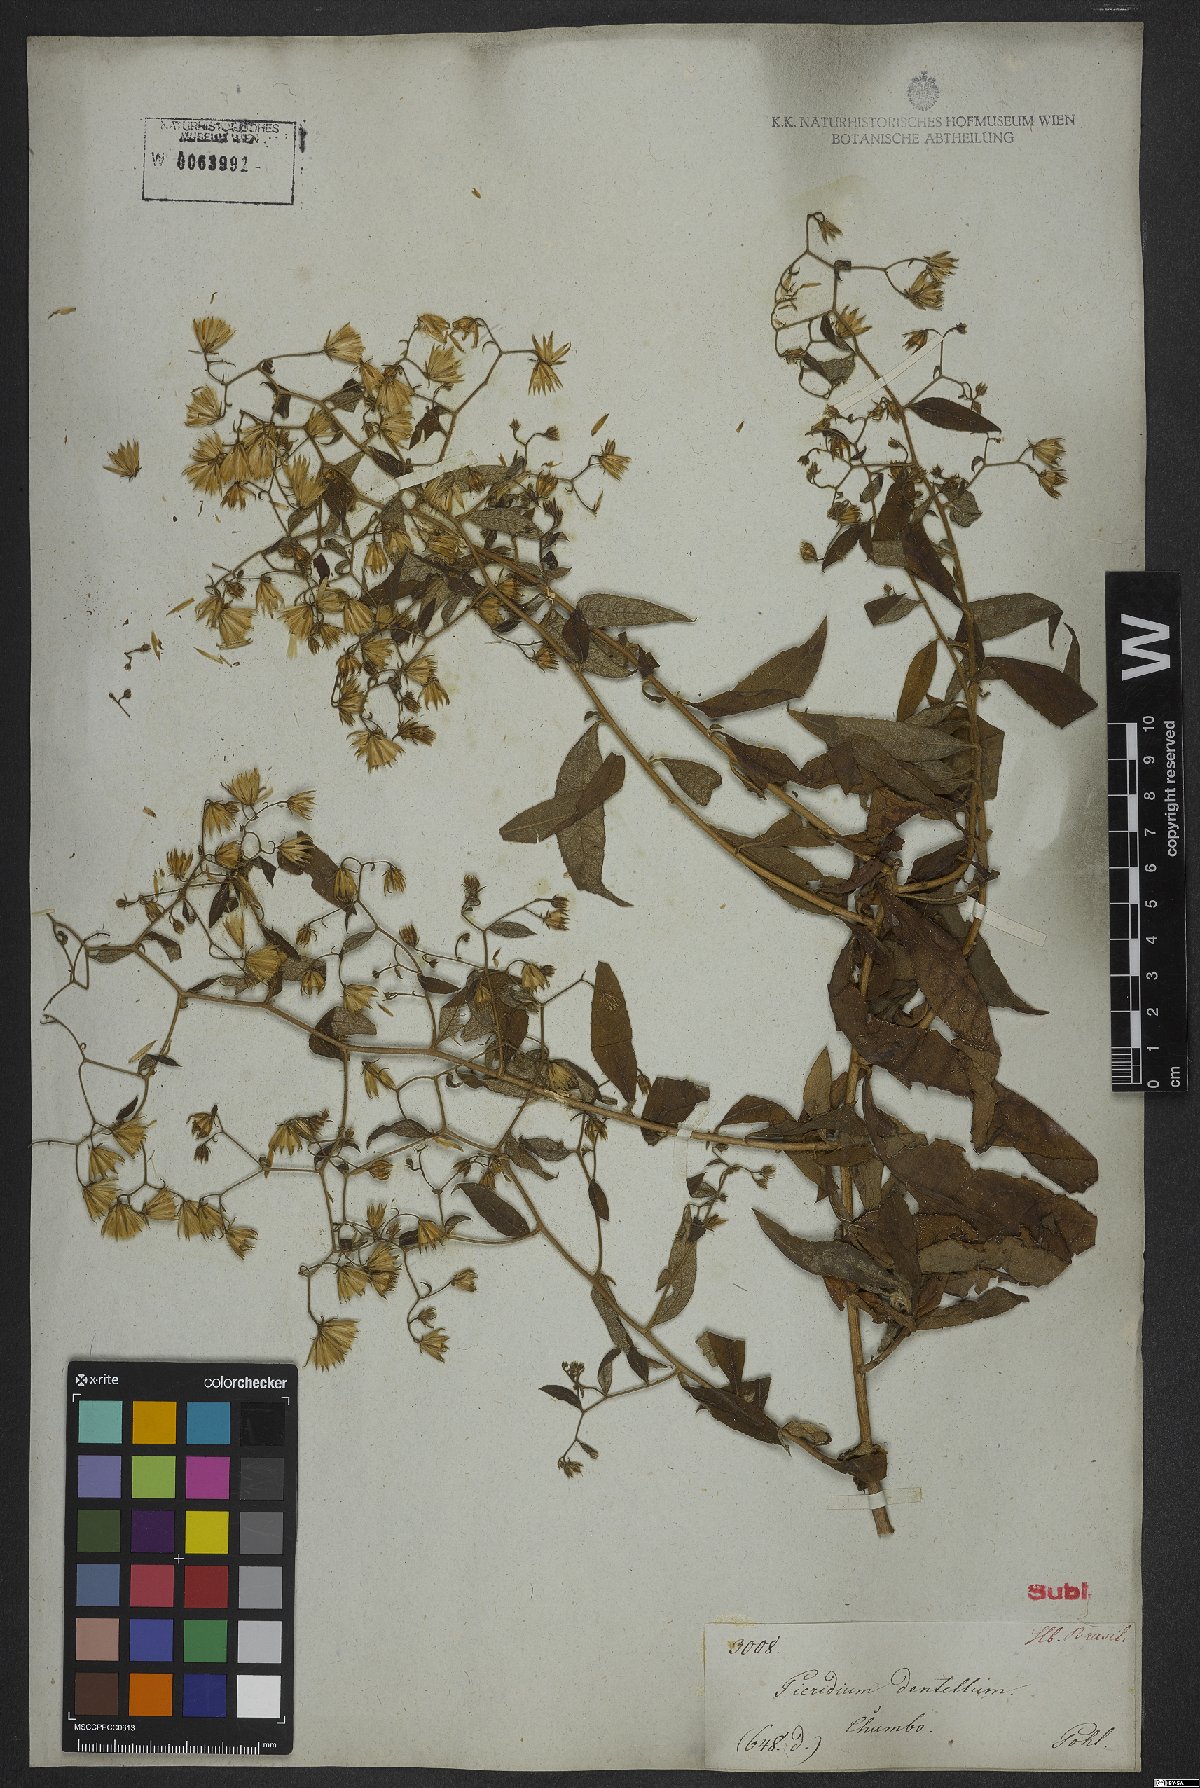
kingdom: Plantae
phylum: Tracheophyta
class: Magnoliopsida
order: Asterales
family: Asteraceae
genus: Trixis
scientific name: Trixis divaricata
